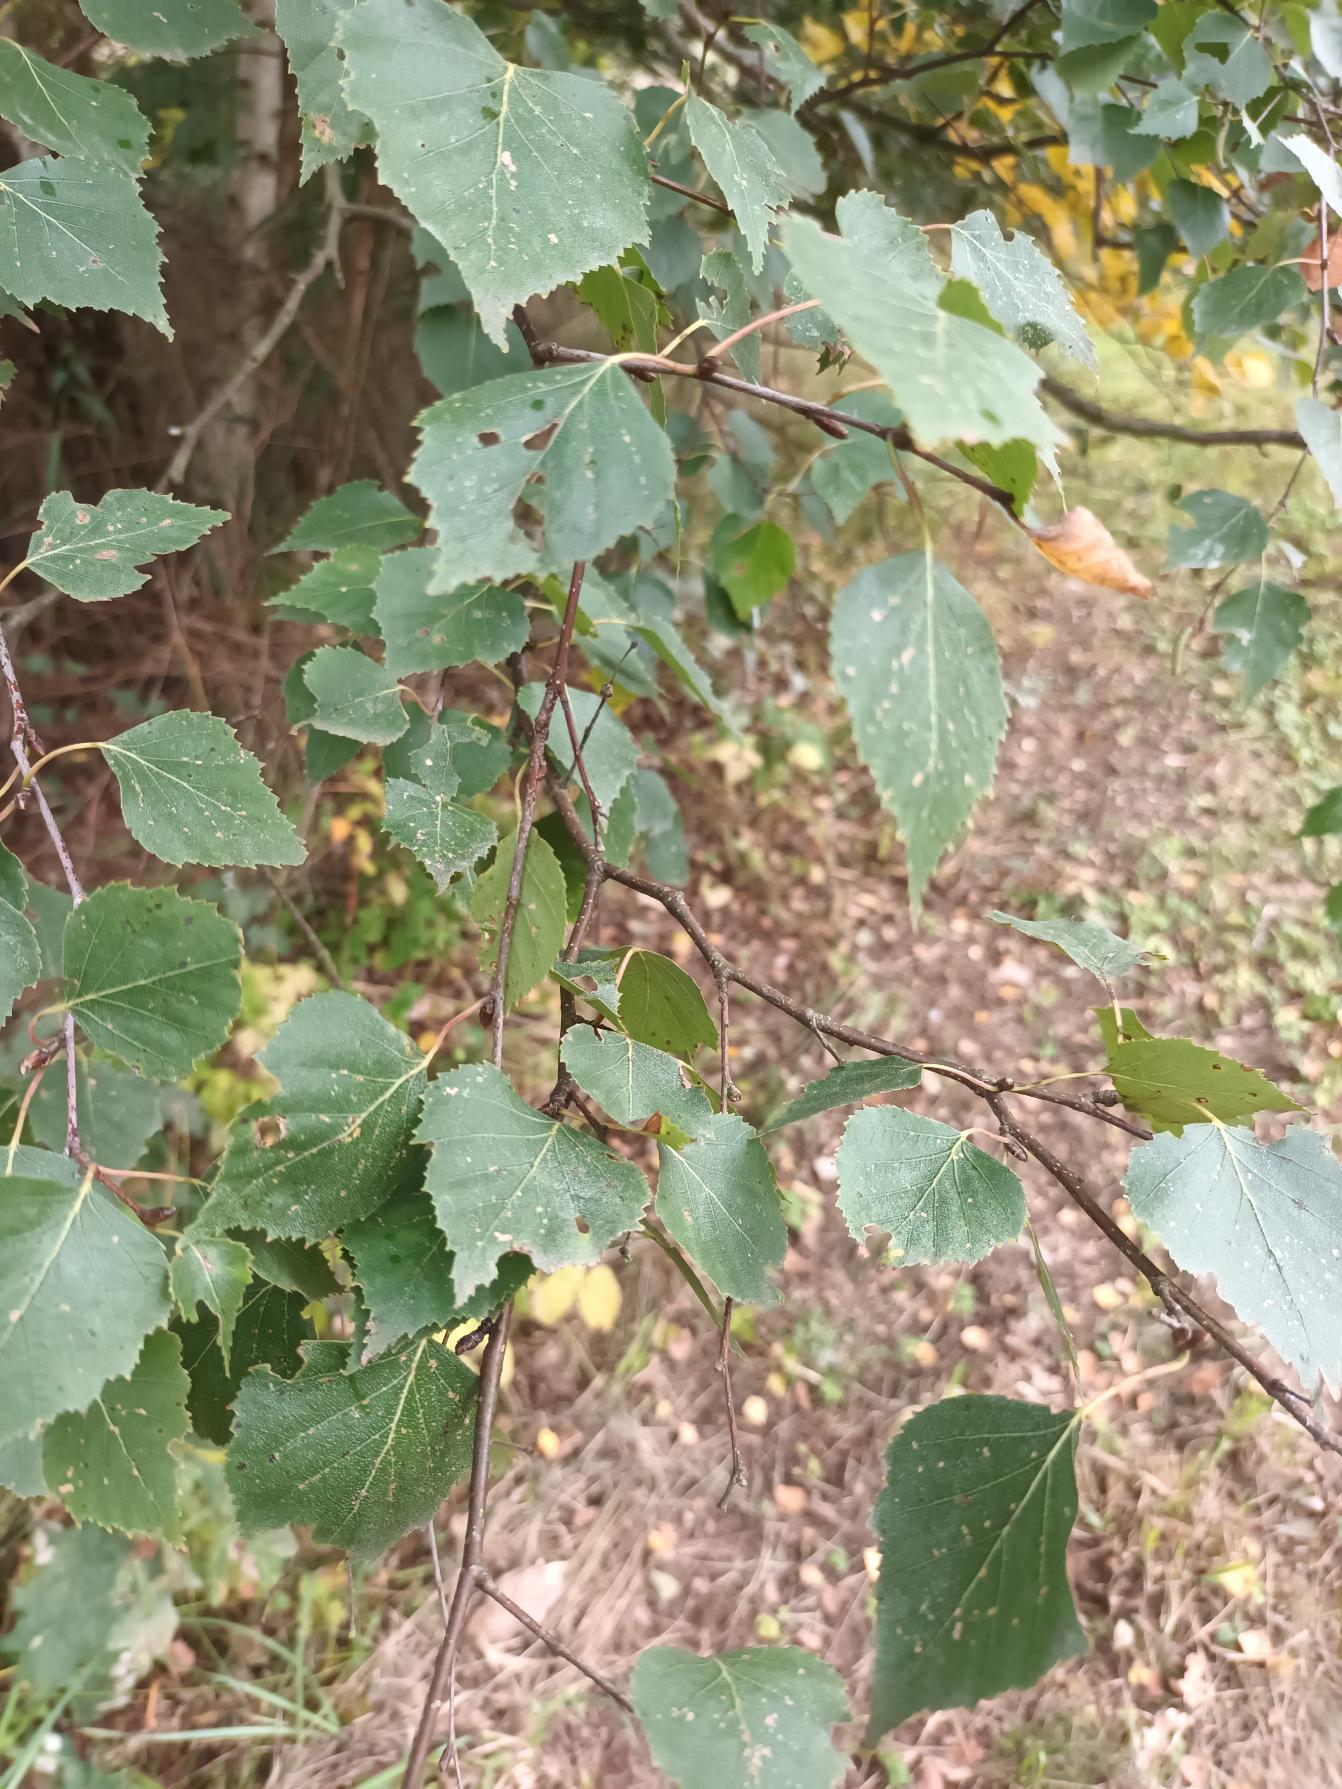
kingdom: Plantae
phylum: Tracheophyta
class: Magnoliopsida
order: Fagales
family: Betulaceae
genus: Betula
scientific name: Betula pendula
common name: Vorte-birk
